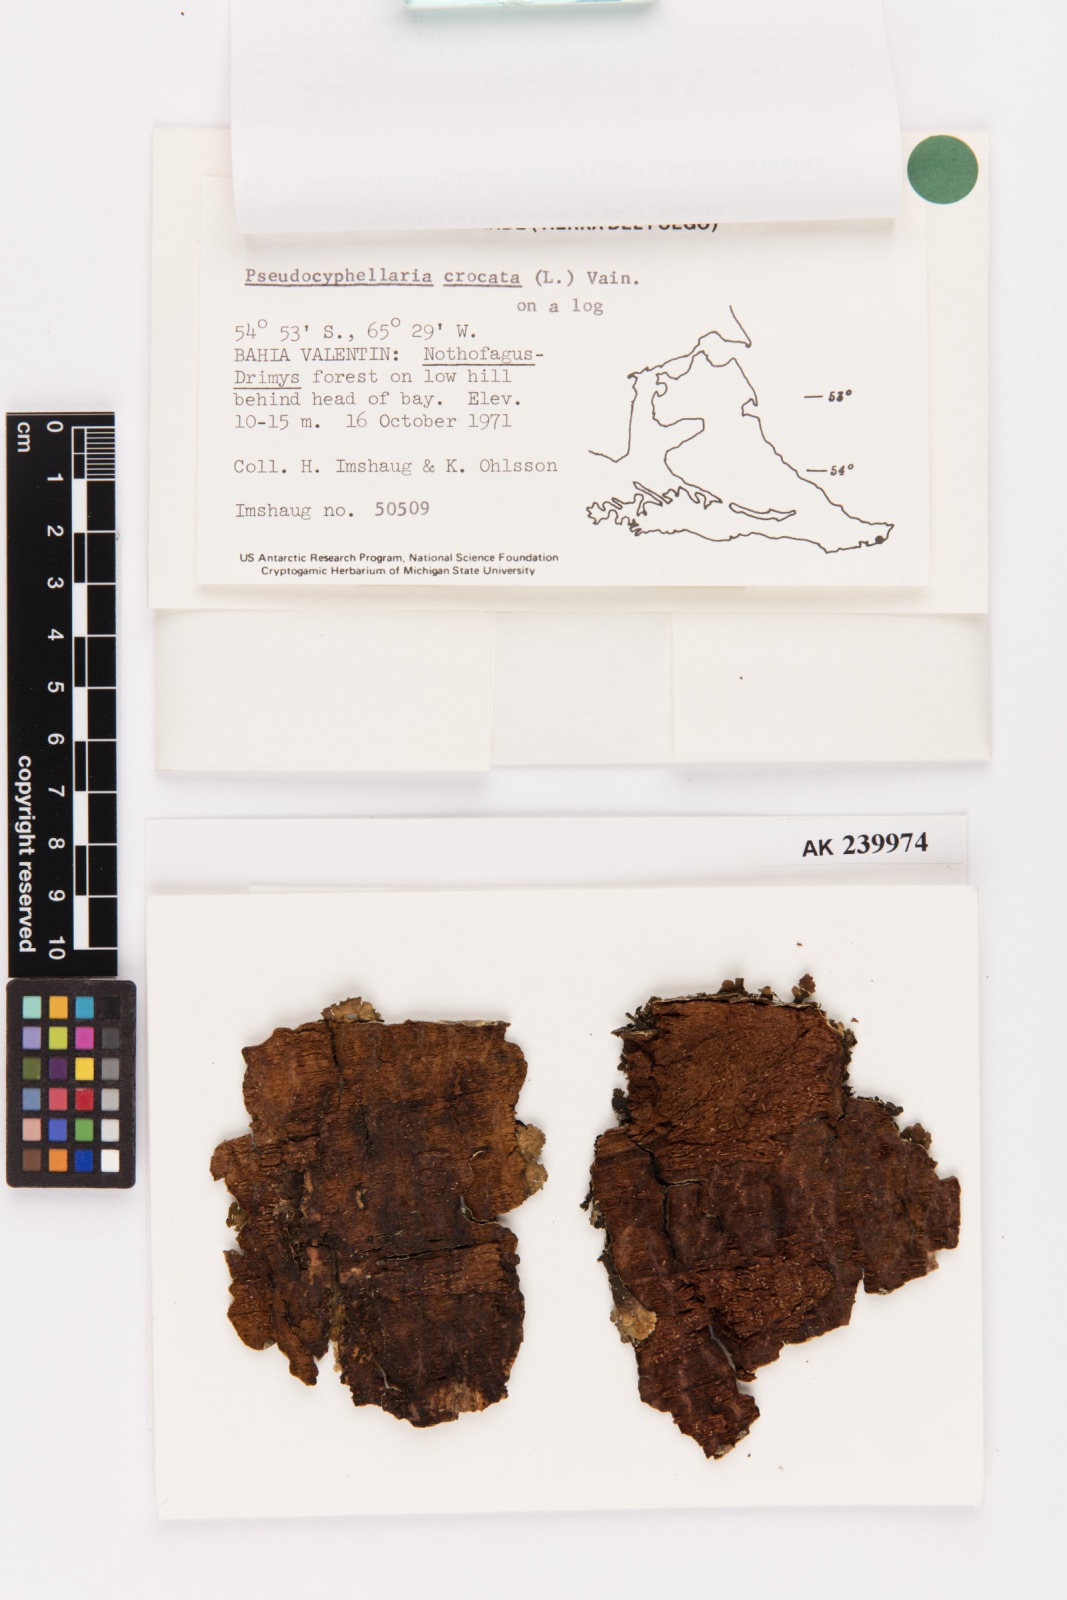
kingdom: Fungi
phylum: Ascomycota
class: Lecanoromycetes
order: Peltigerales
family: Lobariaceae
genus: Pseudocyphellaria
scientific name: Pseudocyphellaria crocata
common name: Golden specklebelly
